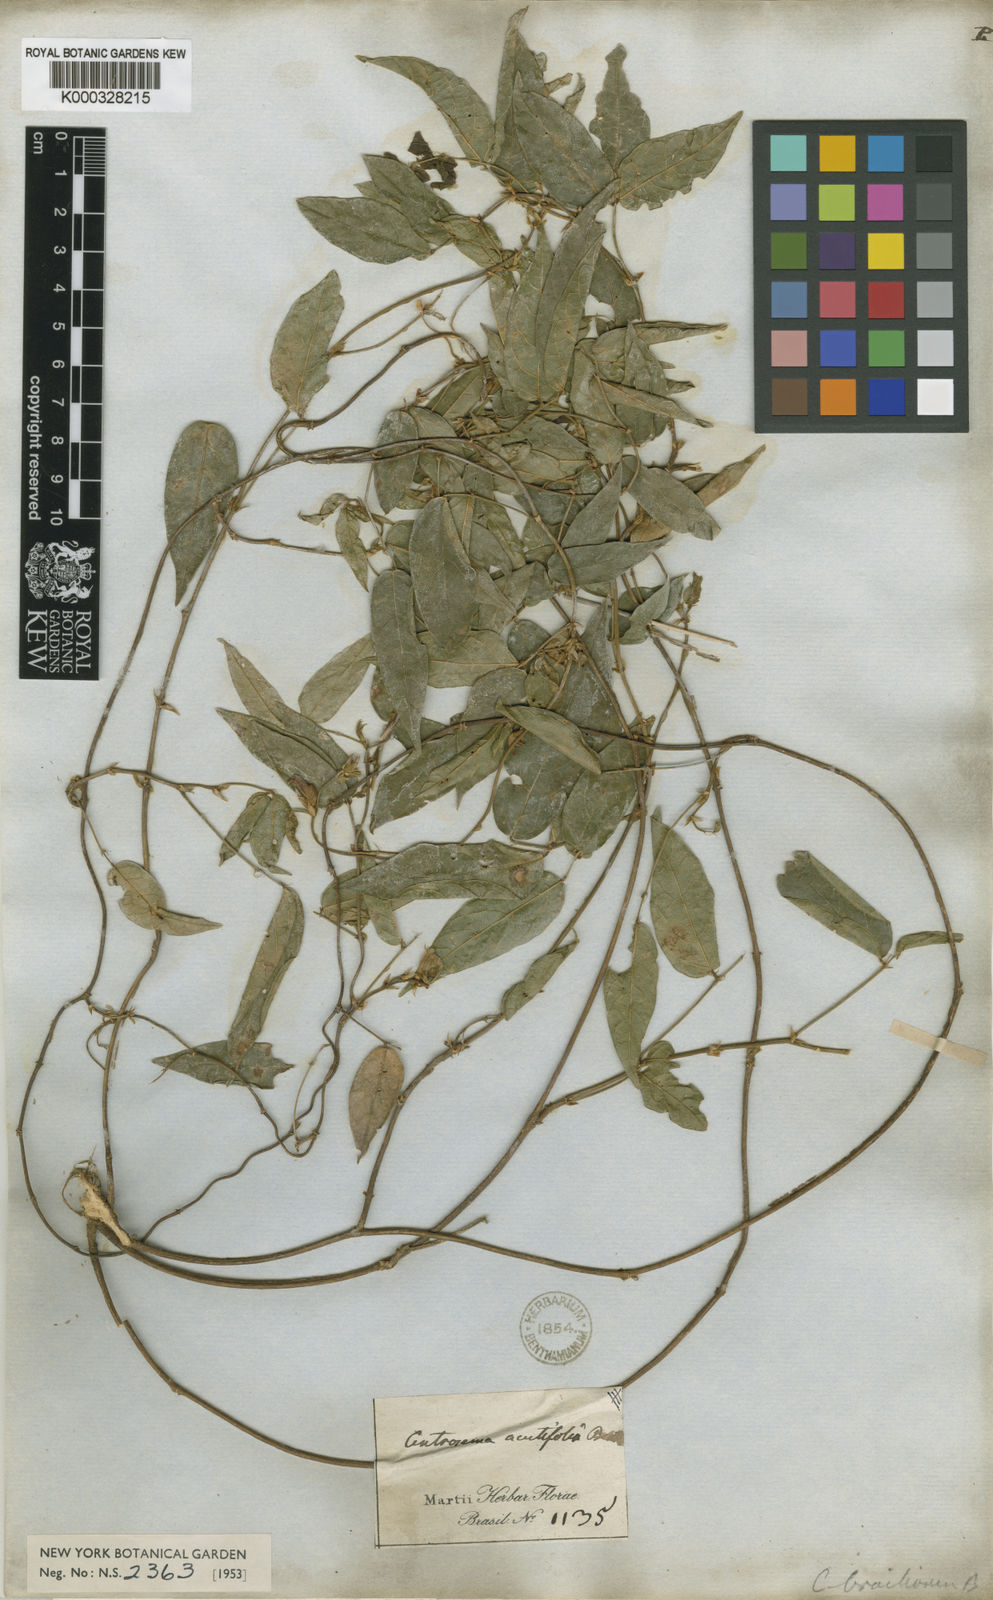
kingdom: Plantae
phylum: Tracheophyta
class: Magnoliopsida
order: Fabales
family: Fabaceae
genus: Centrosema
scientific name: Centrosema brasilianum
